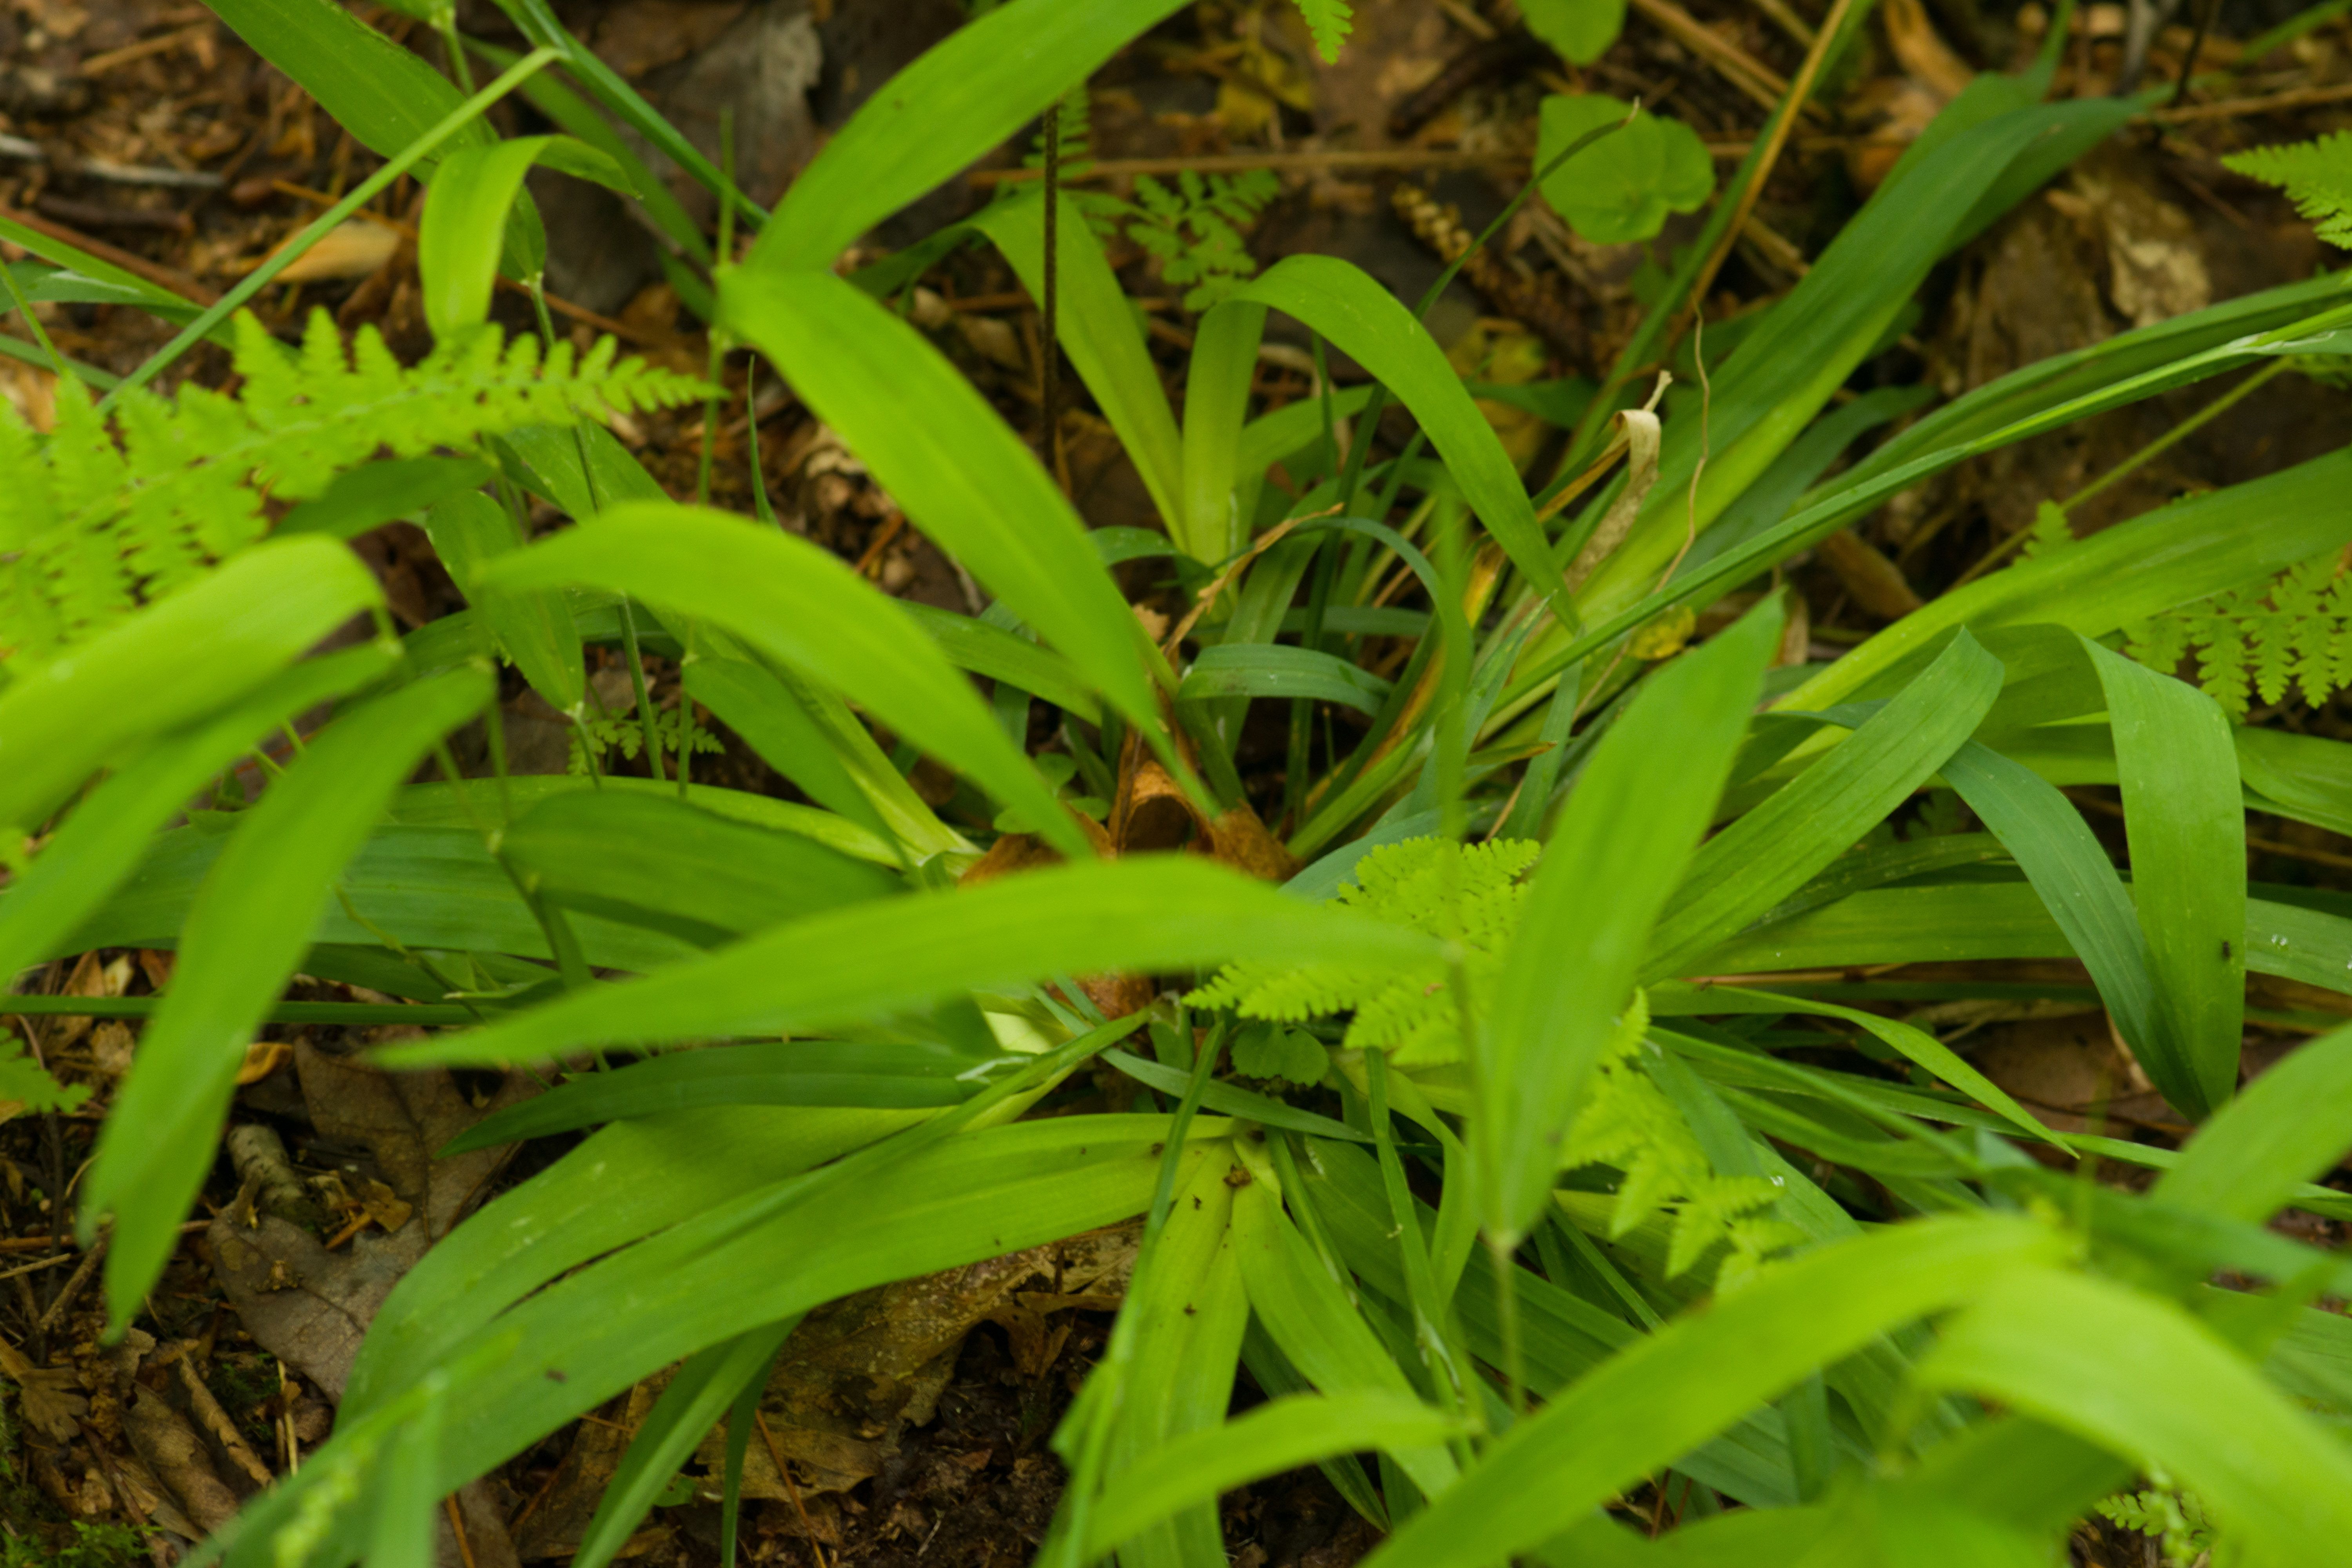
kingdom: Plantae
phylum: Tracheophyta
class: Liliopsida
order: Poales
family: Cyperaceae
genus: Carex
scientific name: Carex blanda
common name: Bland sedge
